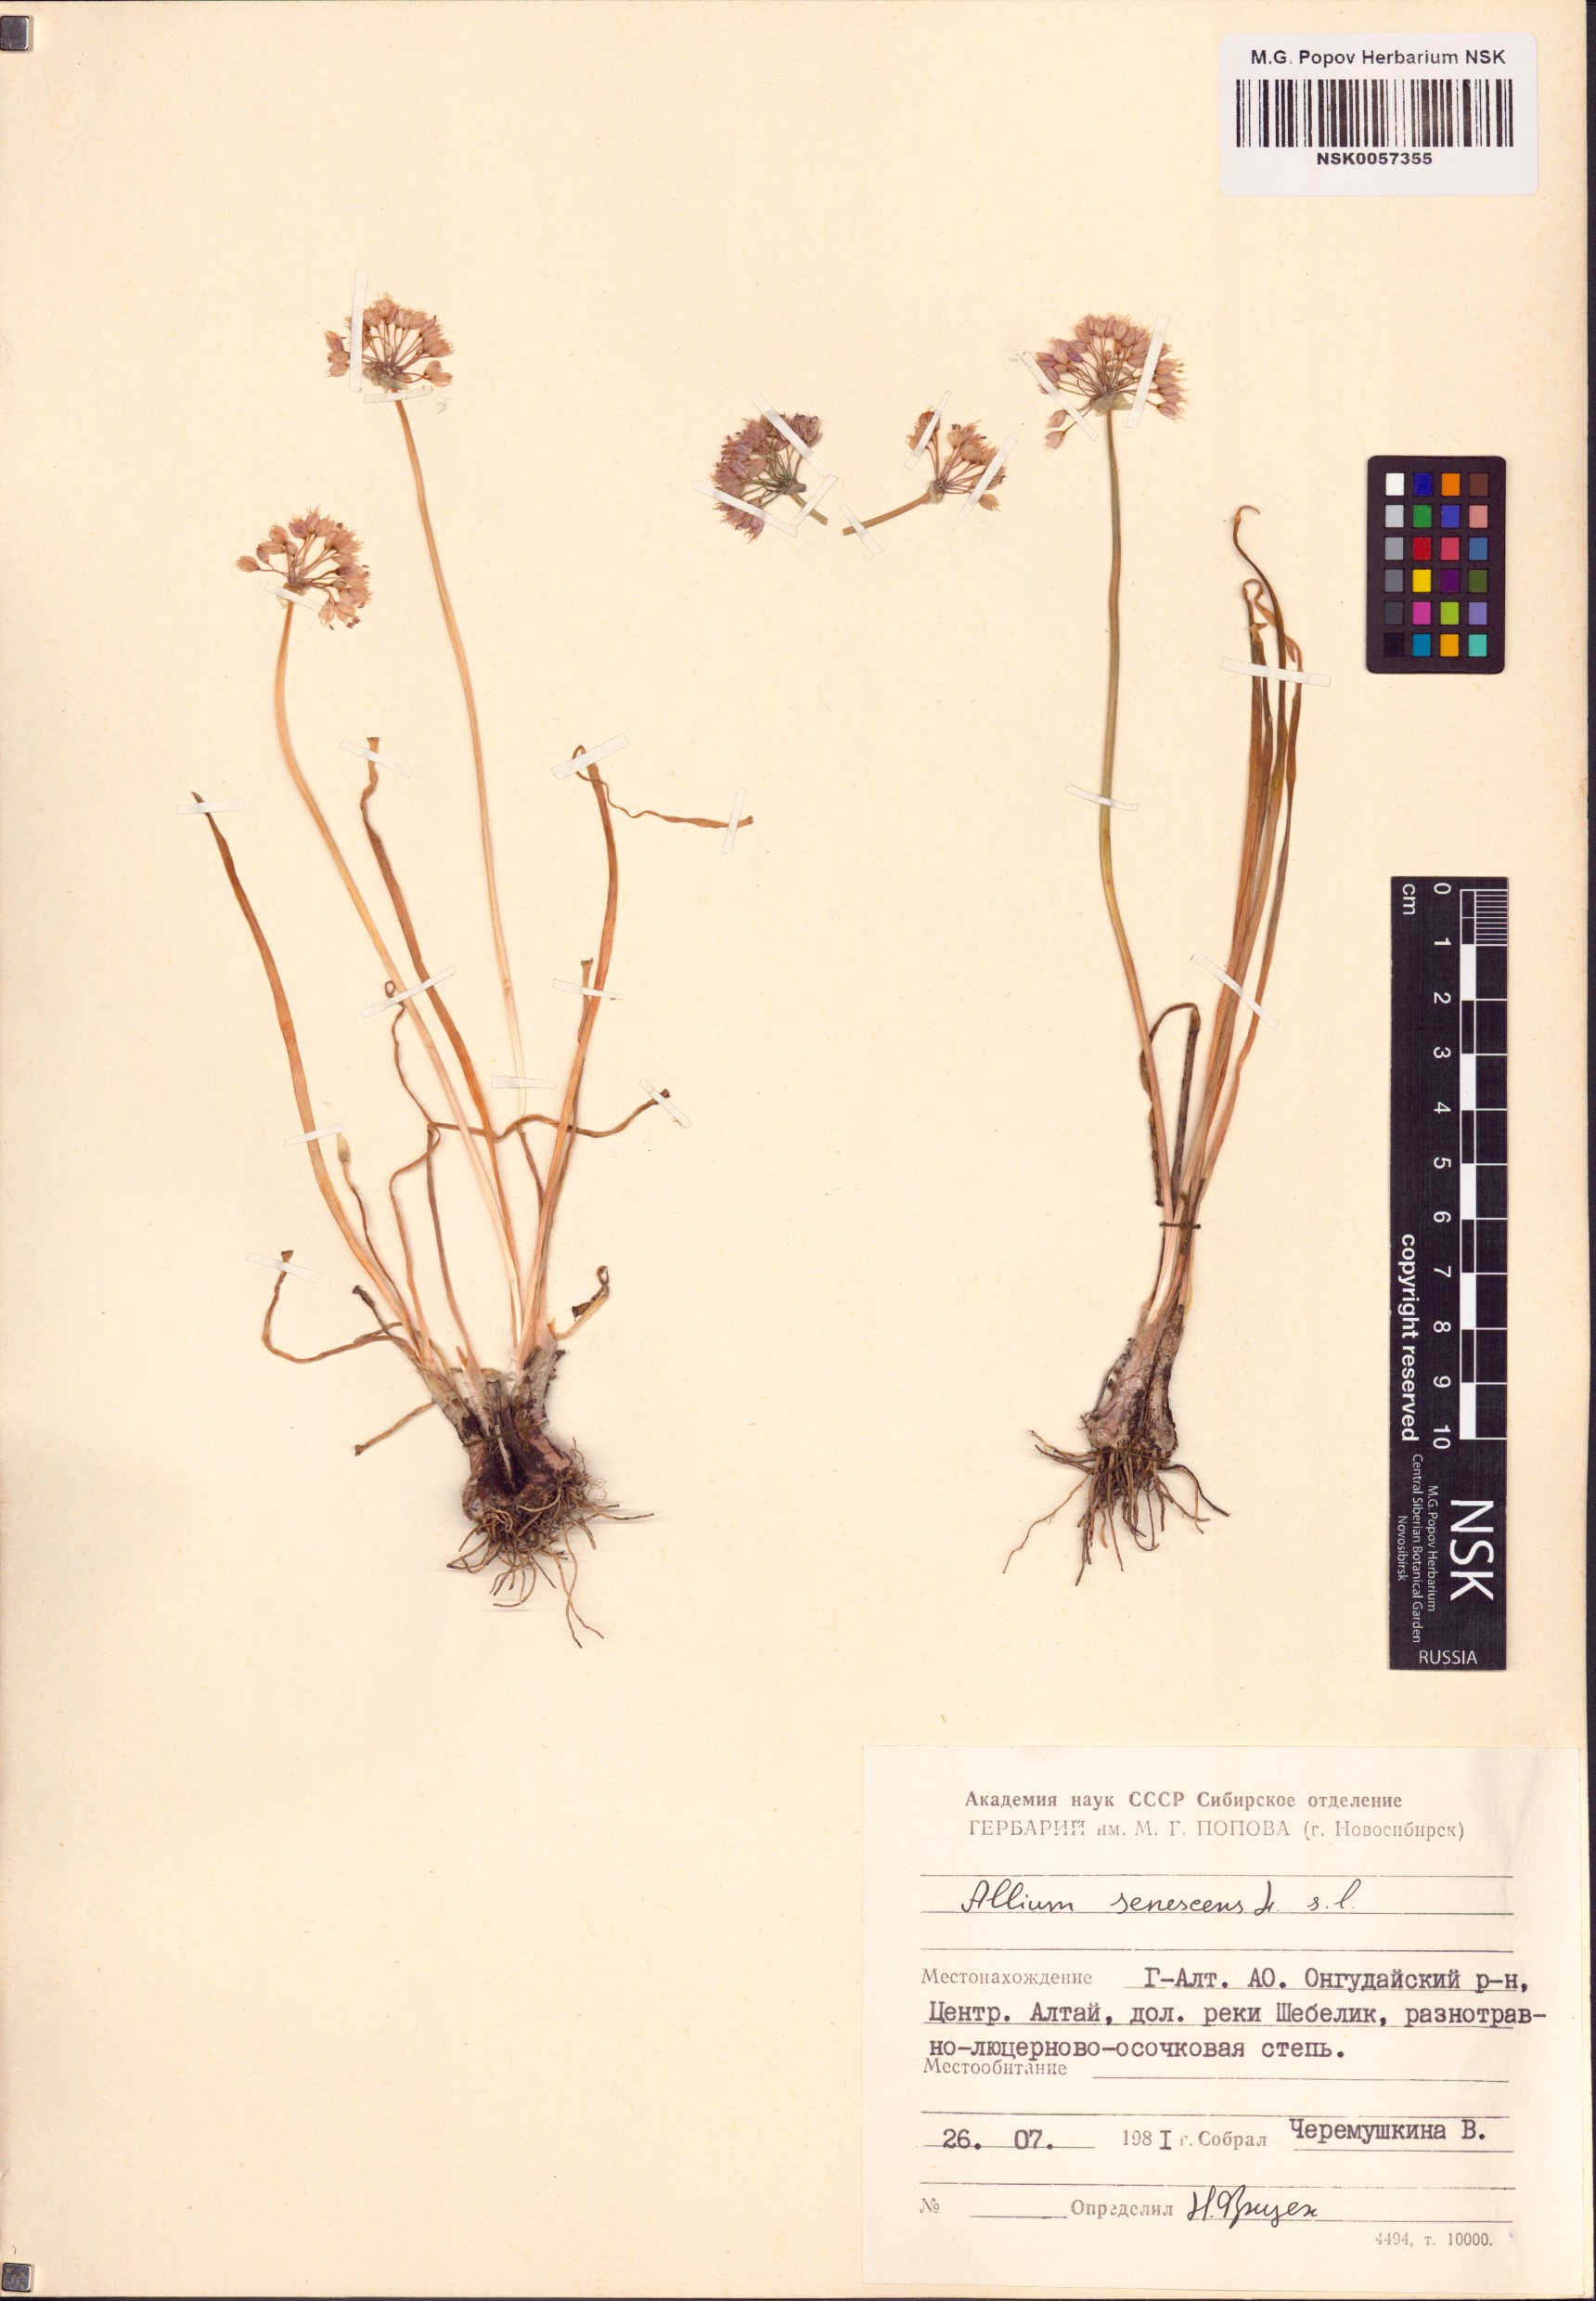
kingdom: Plantae
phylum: Tracheophyta
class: Liliopsida
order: Asparagales
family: Amaryllidaceae
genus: Allium
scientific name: Allium senescens
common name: German garlic
